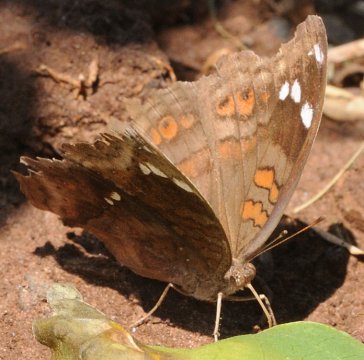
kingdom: Animalia
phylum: Arthropoda
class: Insecta
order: Lepidoptera
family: Nymphalidae
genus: Junonia
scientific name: Junonia natalica
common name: Natal Pansy
